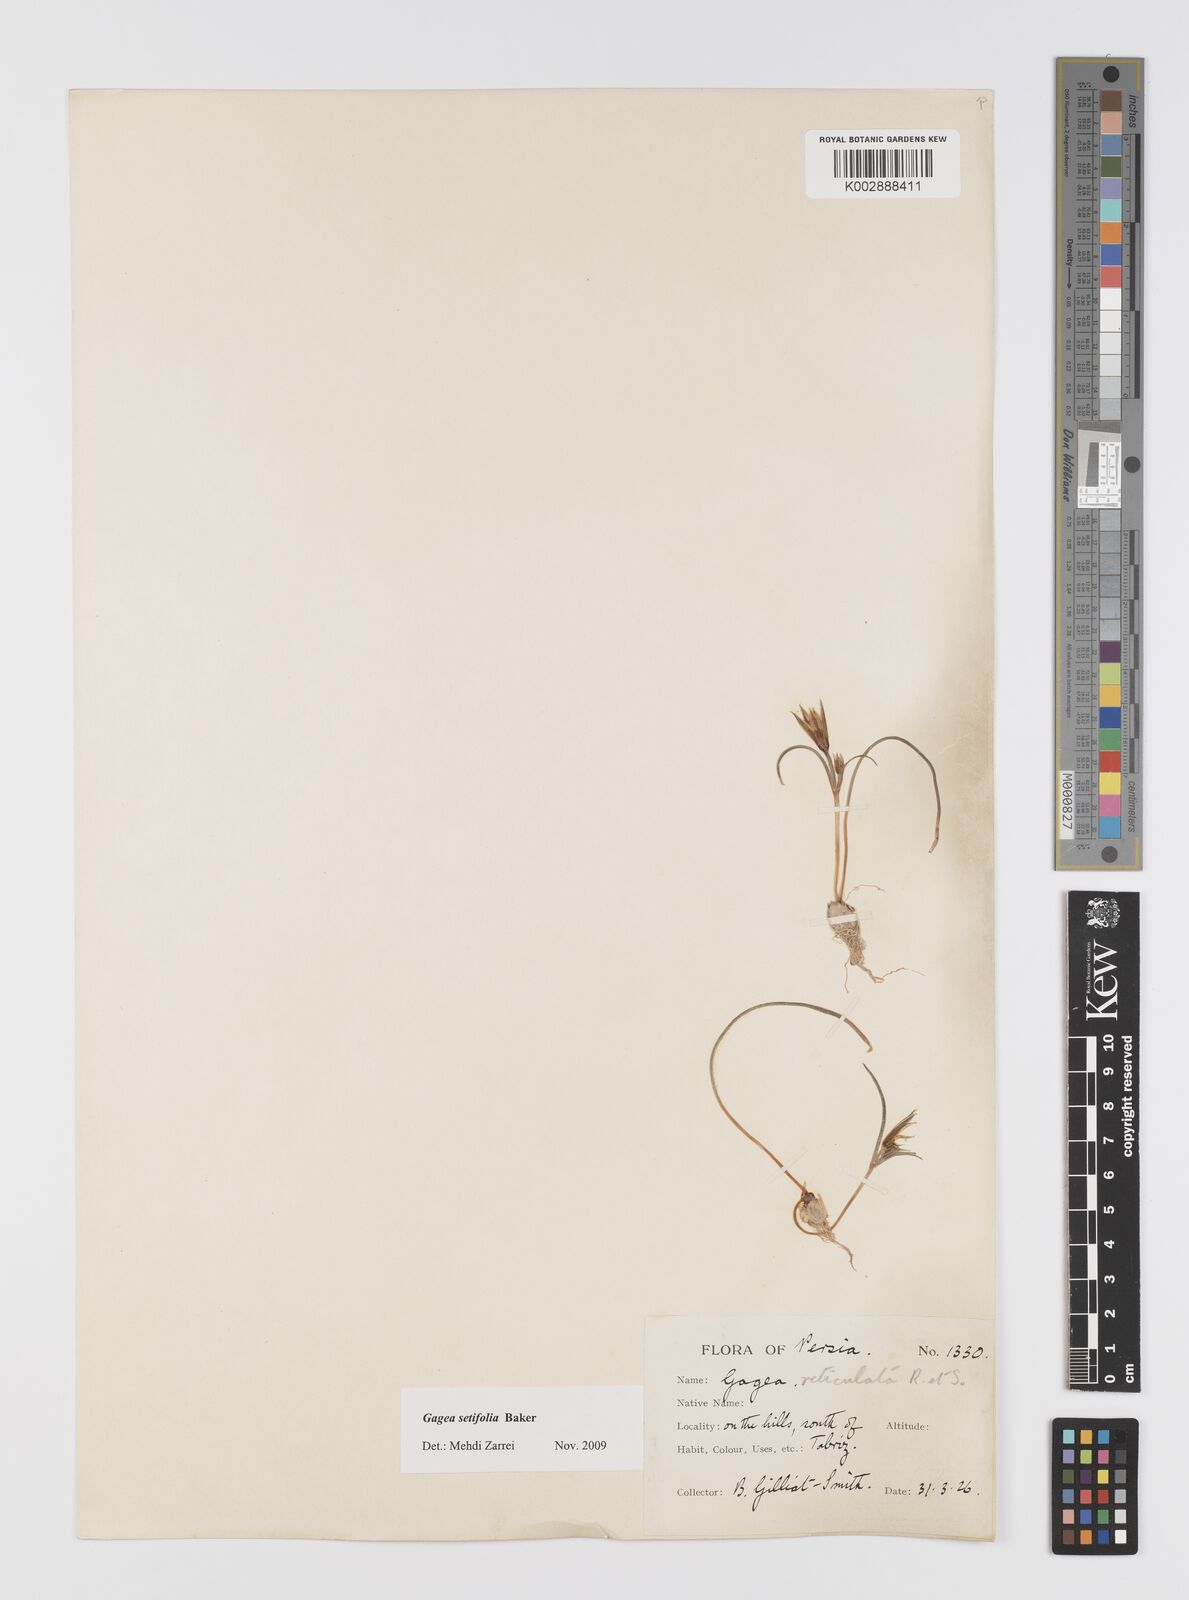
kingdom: Plantae
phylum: Tracheophyta
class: Liliopsida
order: Liliales
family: Liliaceae
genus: Gagea
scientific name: Gagea setifolia
